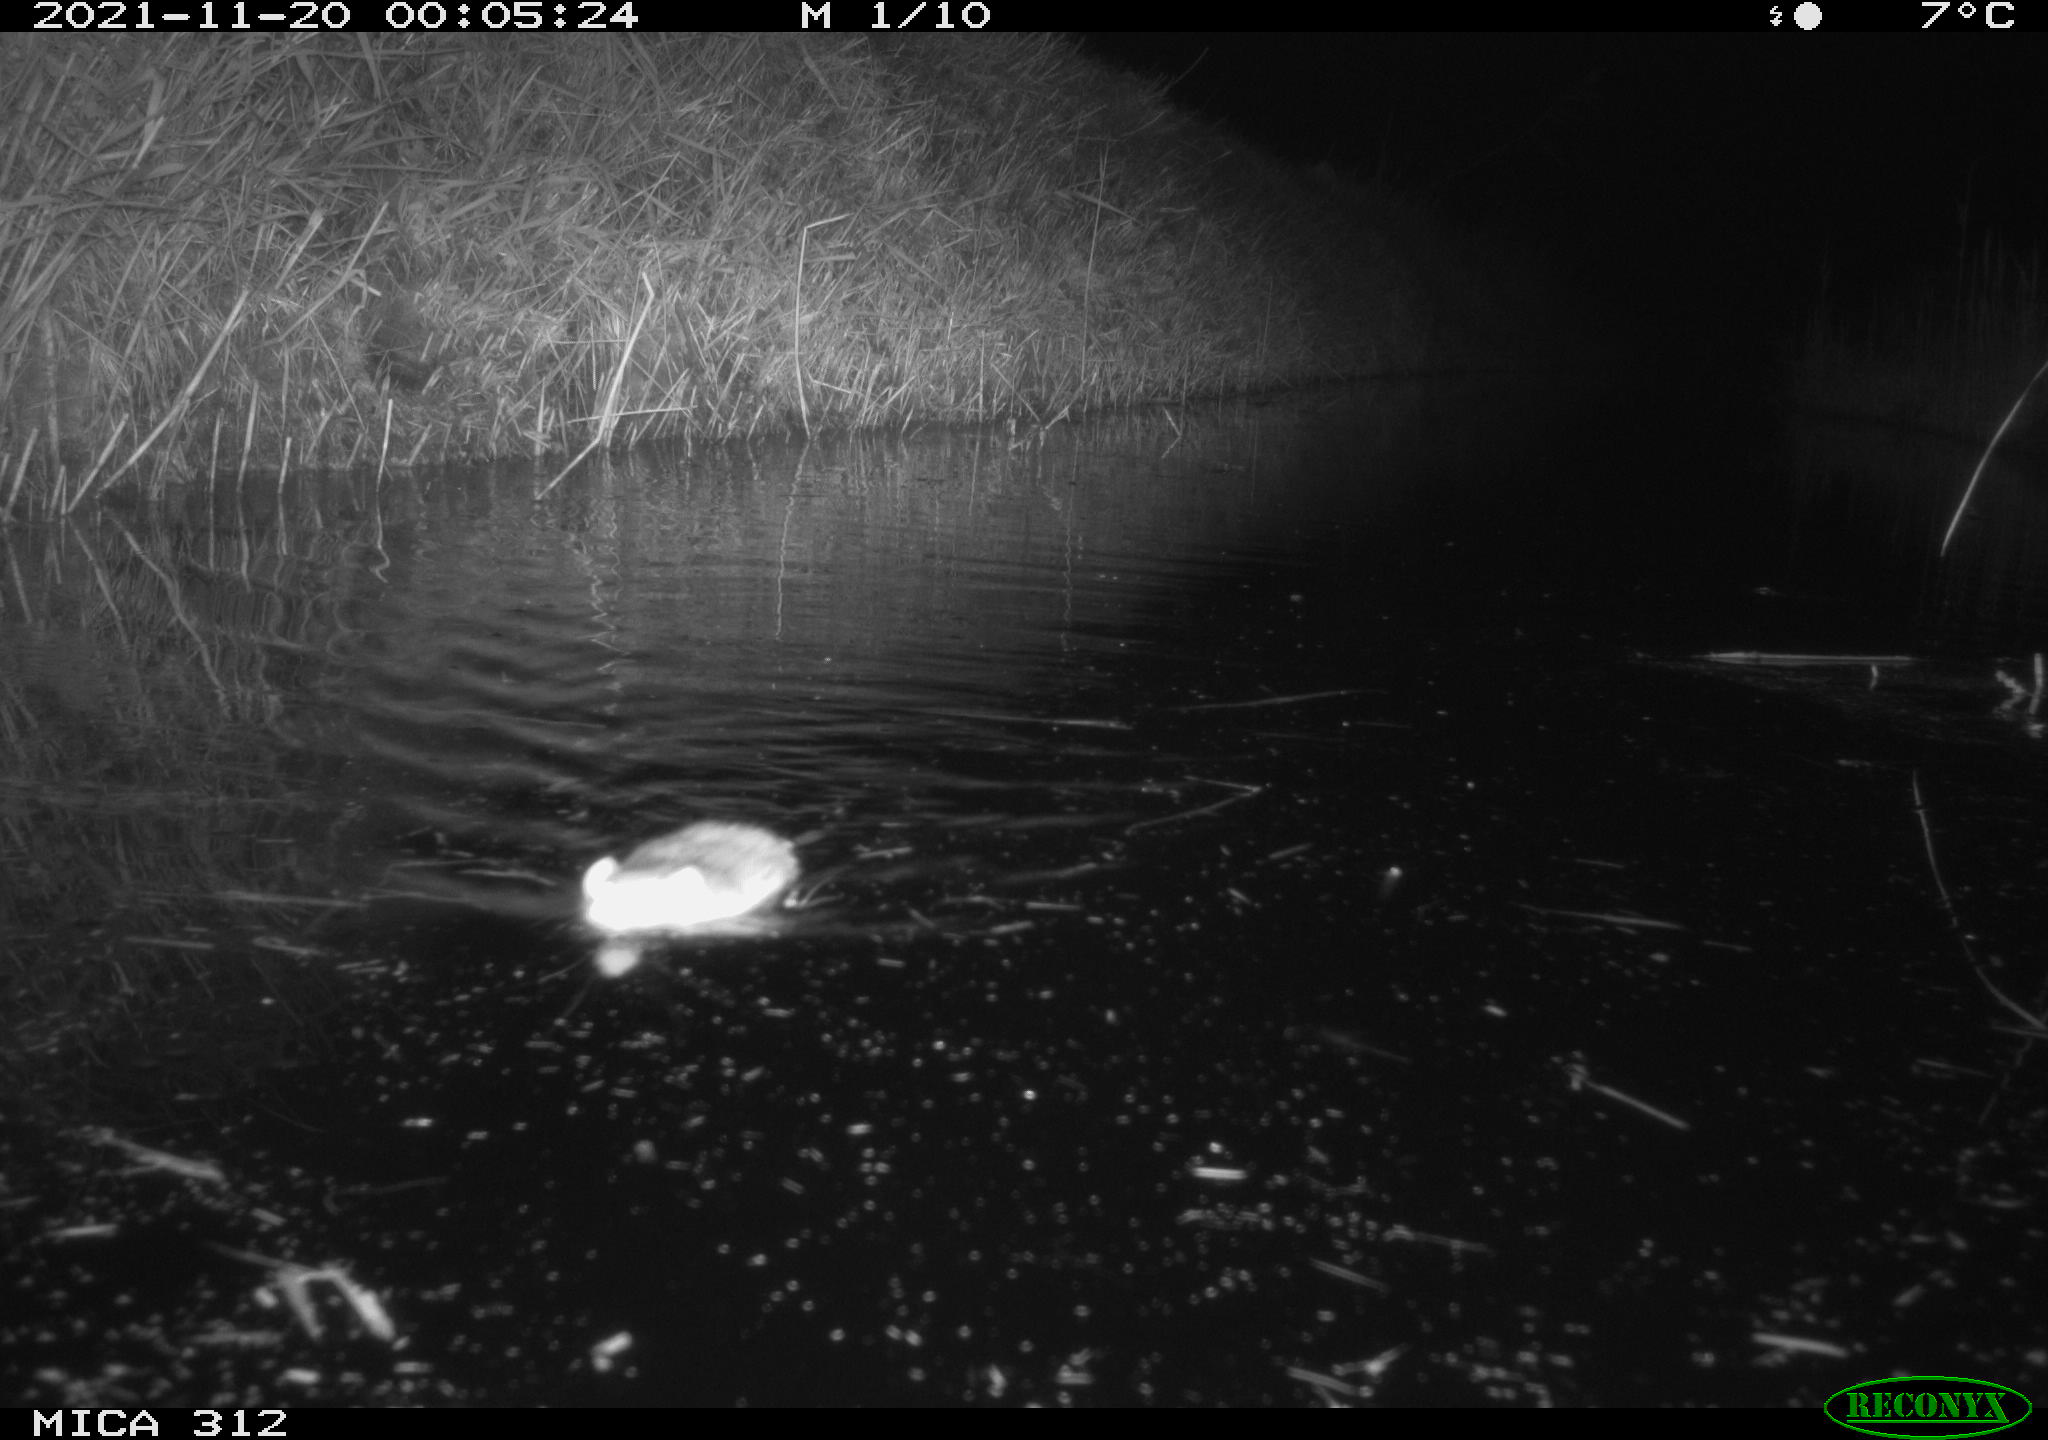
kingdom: Animalia
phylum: Chordata
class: Mammalia
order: Rodentia
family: Muridae
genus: Rattus
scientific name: Rattus norvegicus
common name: Brown rat
